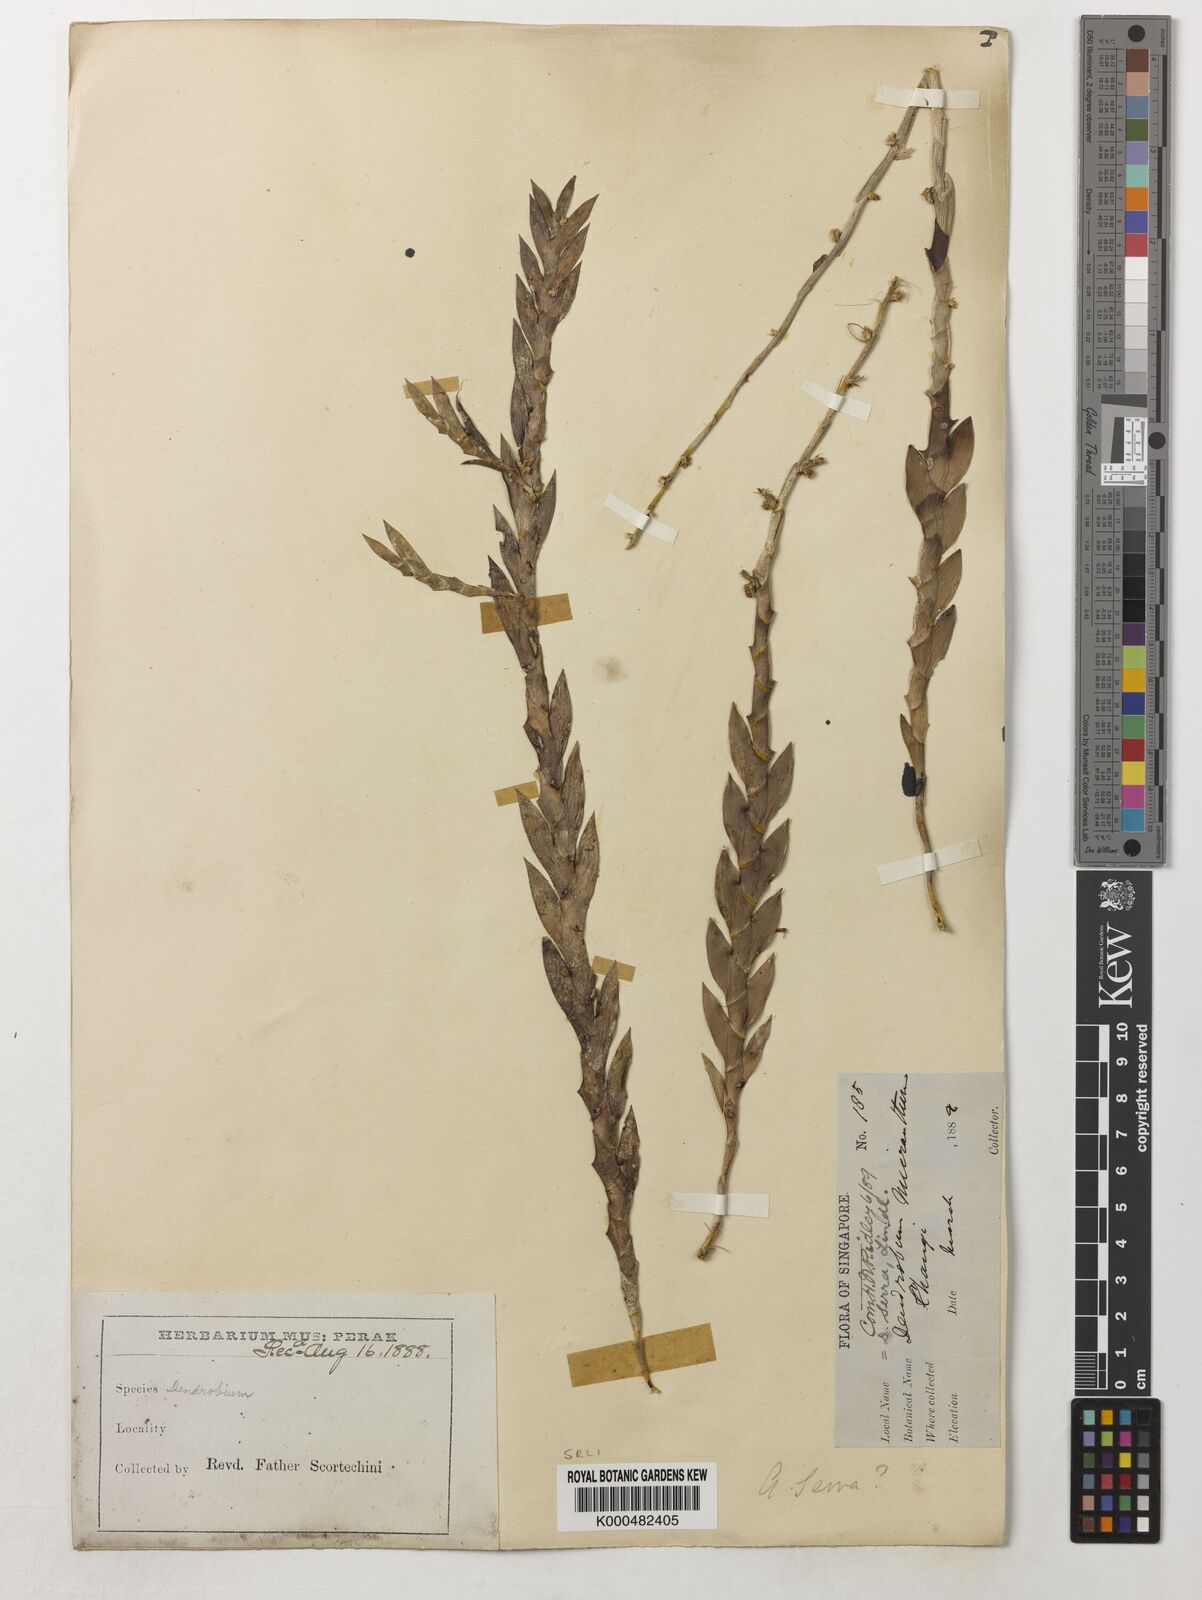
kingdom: Plantae
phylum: Tracheophyta
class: Liliopsida
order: Asparagales
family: Orchidaceae
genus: Dendrobium
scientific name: Dendrobium aloifolium
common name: Aloe-like dendrobium
